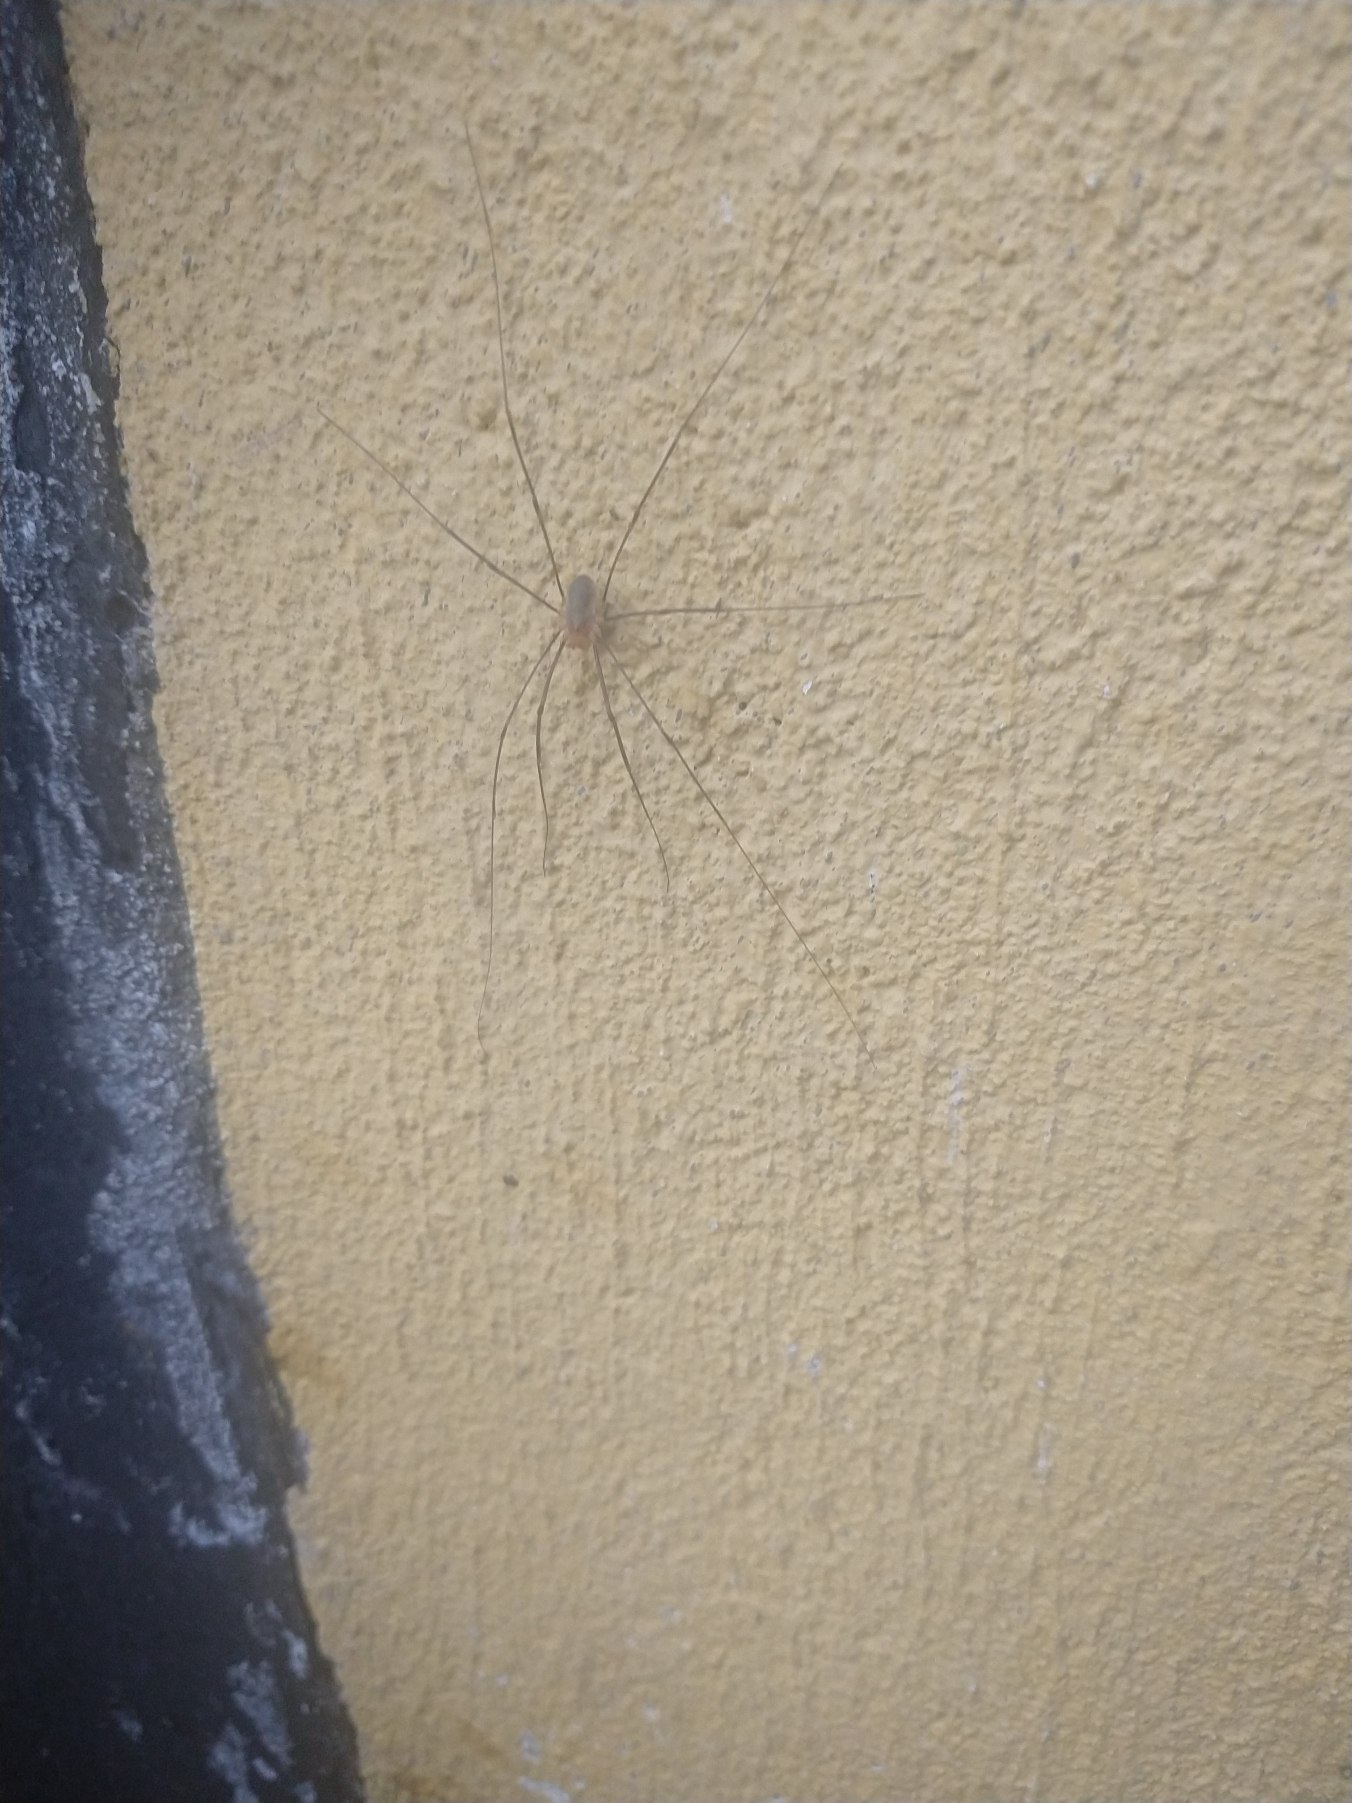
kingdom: Animalia
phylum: Arthropoda
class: Arachnida
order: Opiliones
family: Phalangiidae
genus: Opilio
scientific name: Opilio canestrinii
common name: Orange vægmejer
